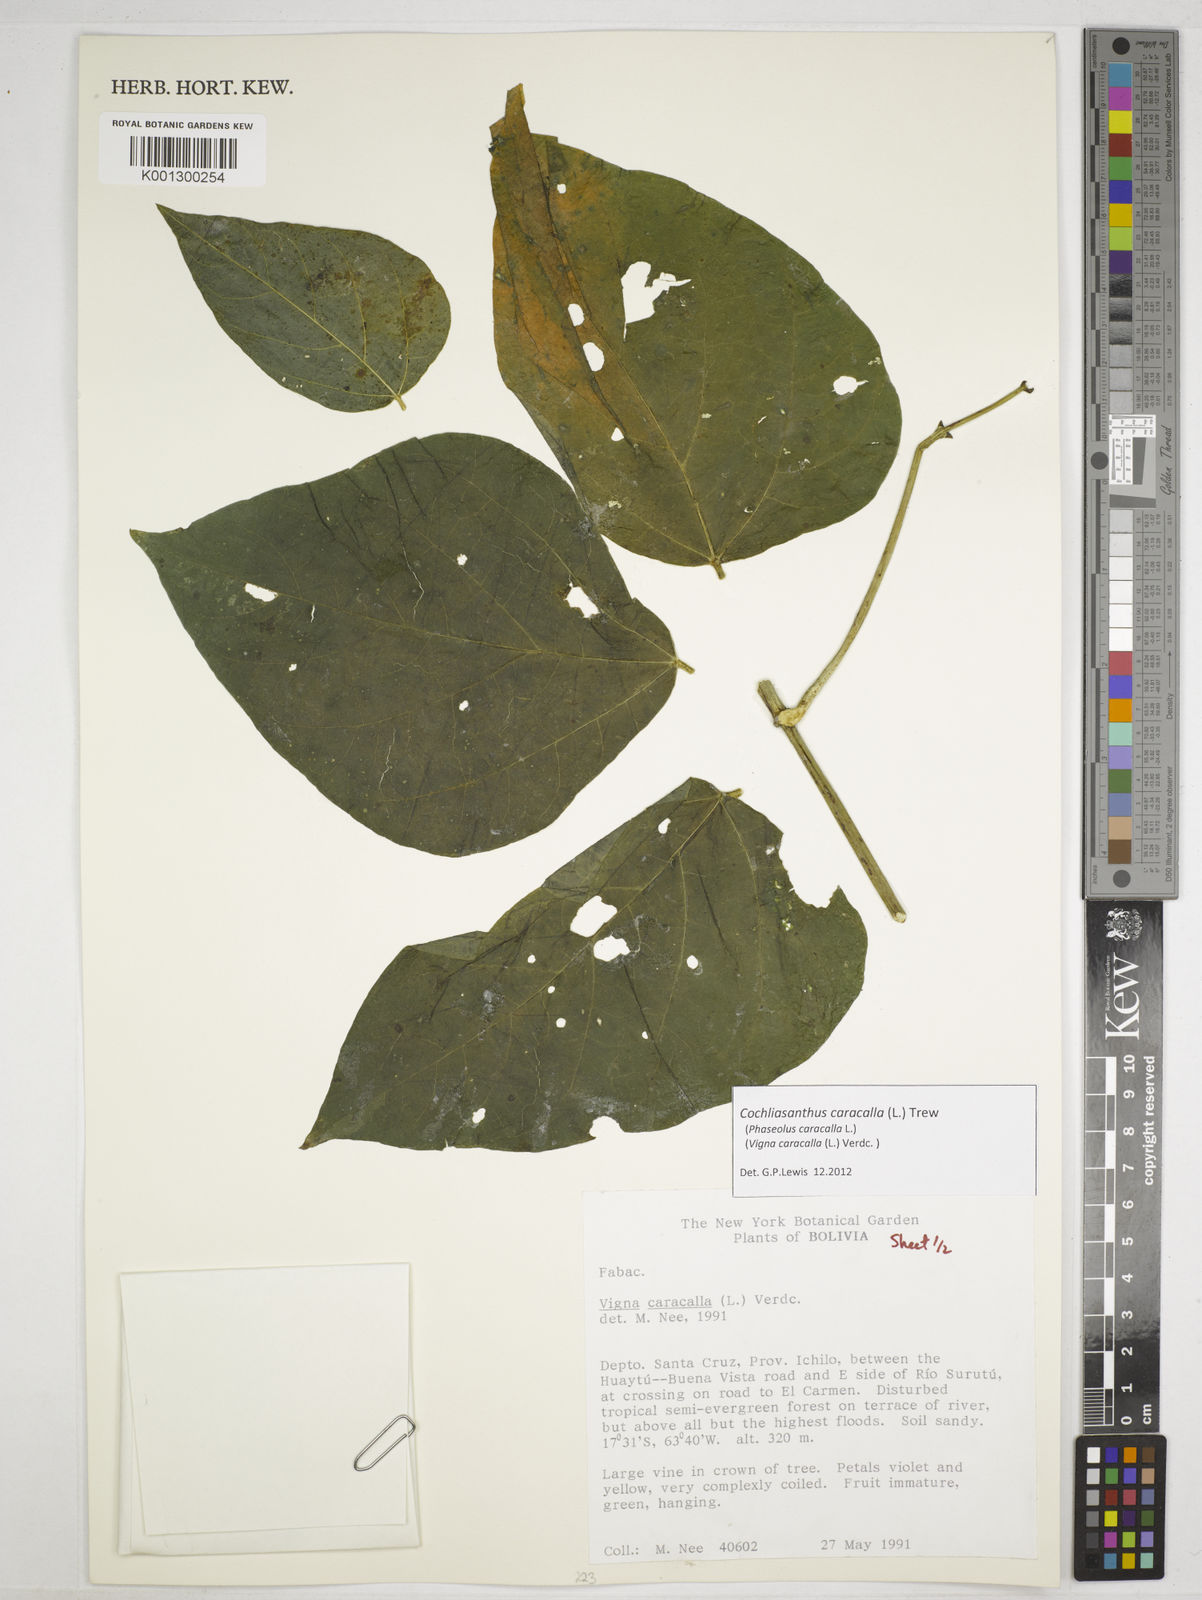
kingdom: Plantae
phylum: Tracheophyta
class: Magnoliopsida
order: Fabales
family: Fabaceae
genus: Cochliasanthus
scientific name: Cochliasanthus caracalla
